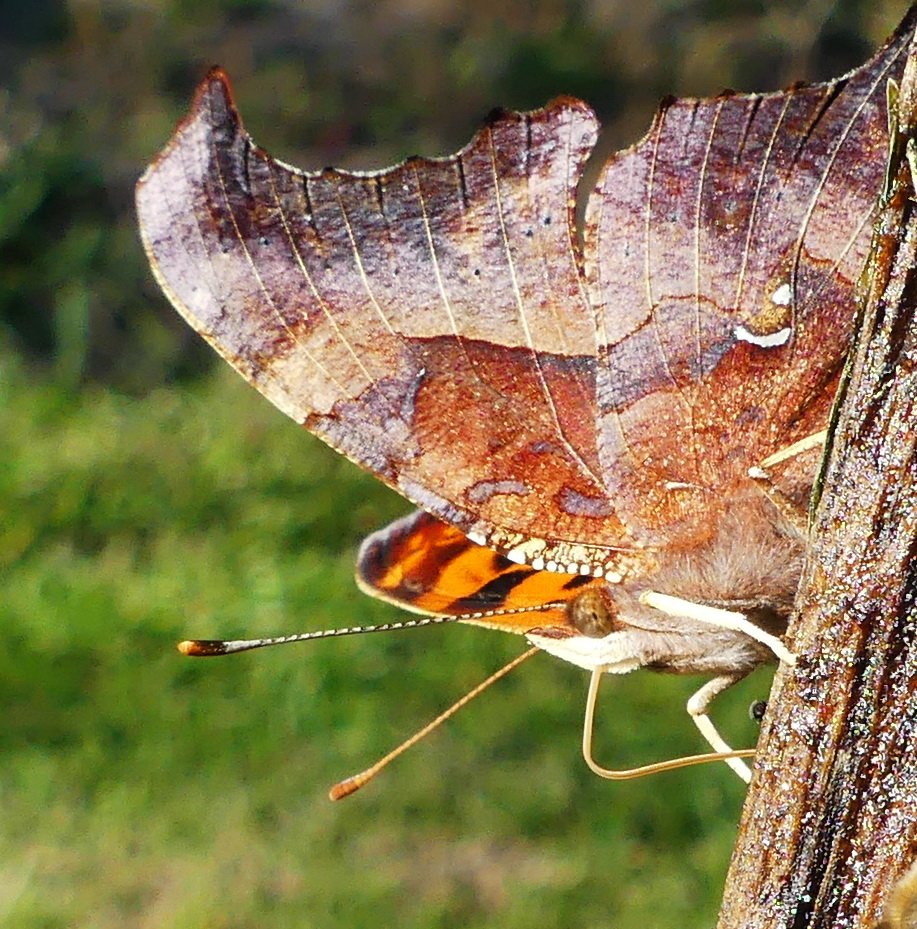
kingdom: Animalia
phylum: Arthropoda
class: Insecta
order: Lepidoptera
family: Nymphalidae
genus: Polygonia
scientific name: Polygonia interrogationis
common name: Question Mark
